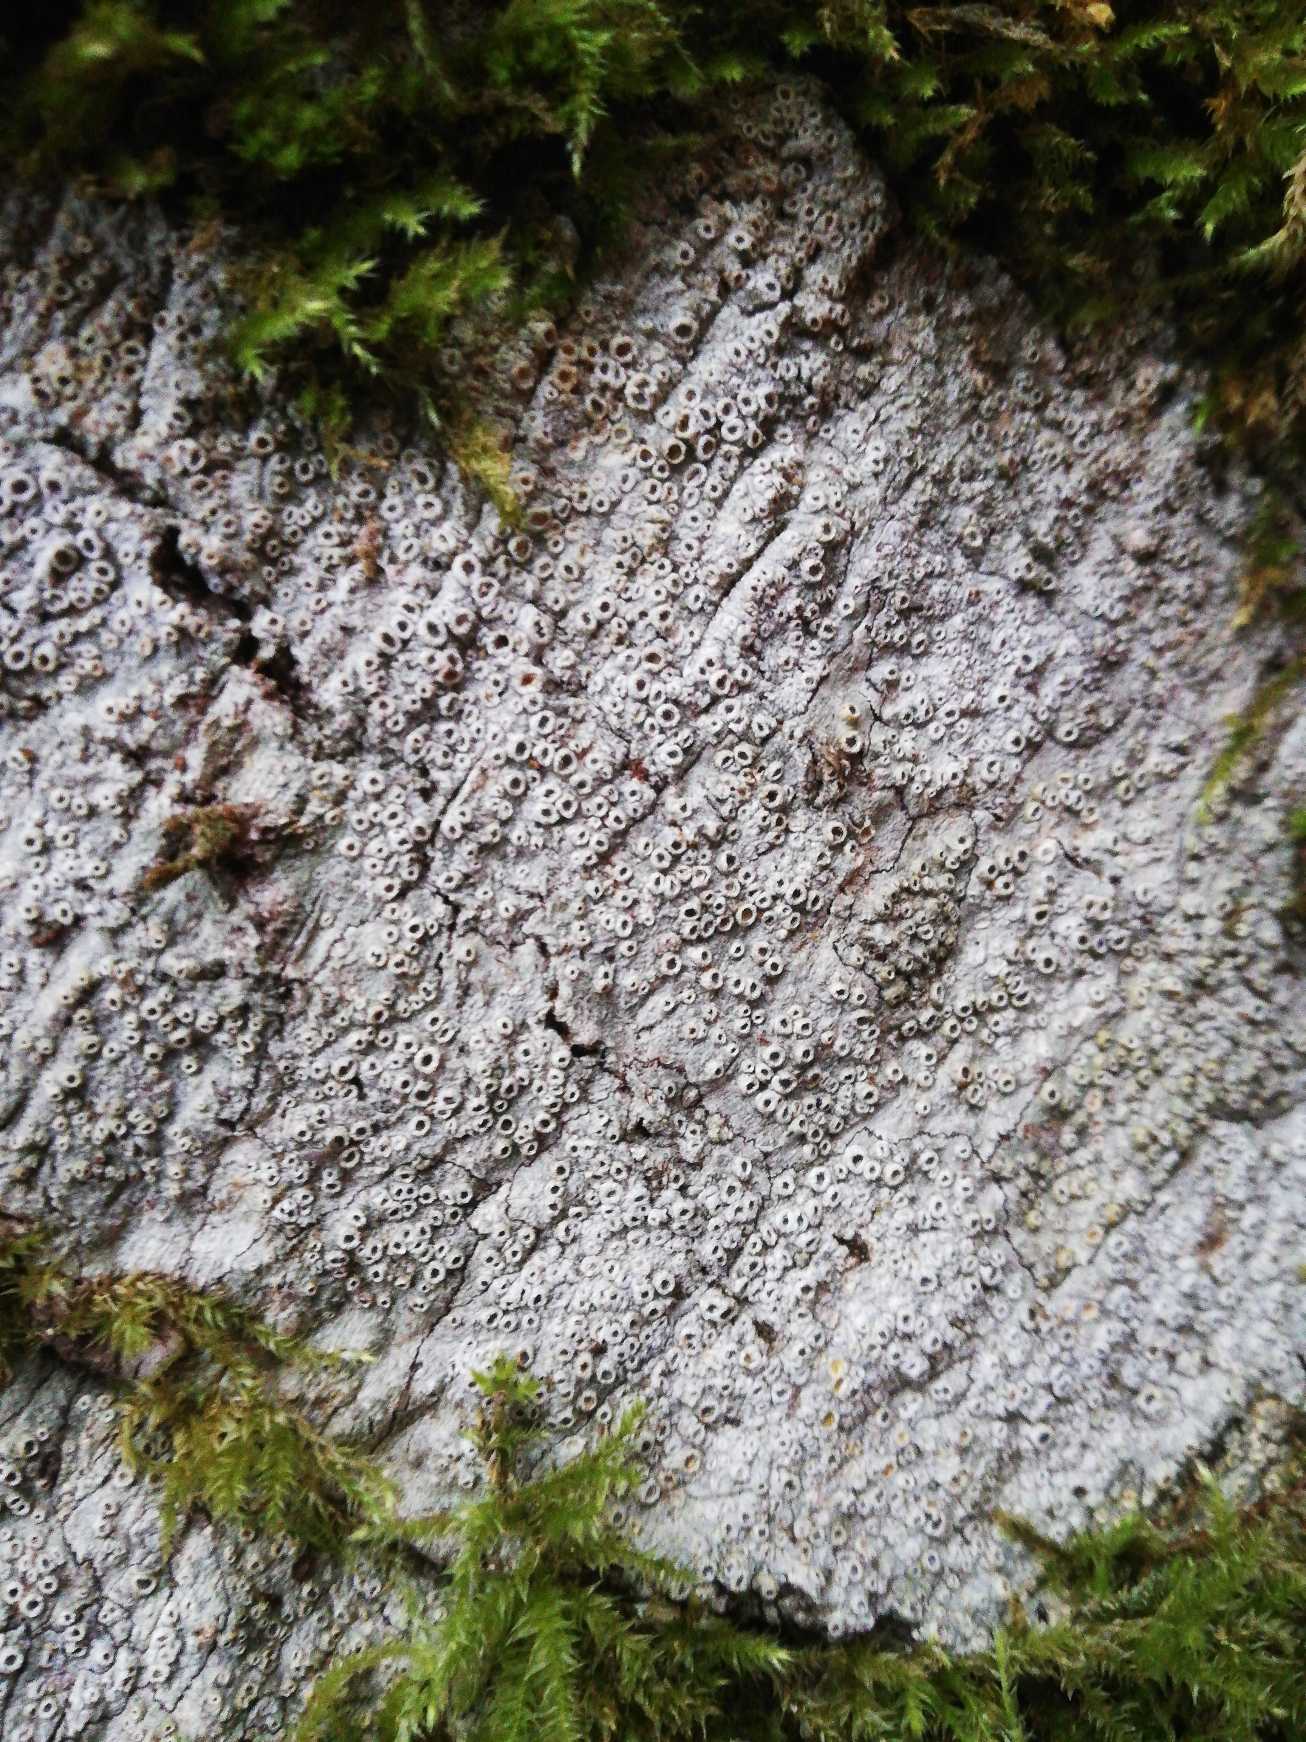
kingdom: Fungi
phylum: Ascomycota
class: Lecanoromycetes
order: Ostropales
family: Graphidaceae
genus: Thelotrema
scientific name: Thelotrema lepadinum
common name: Almindelig slørkantlav
